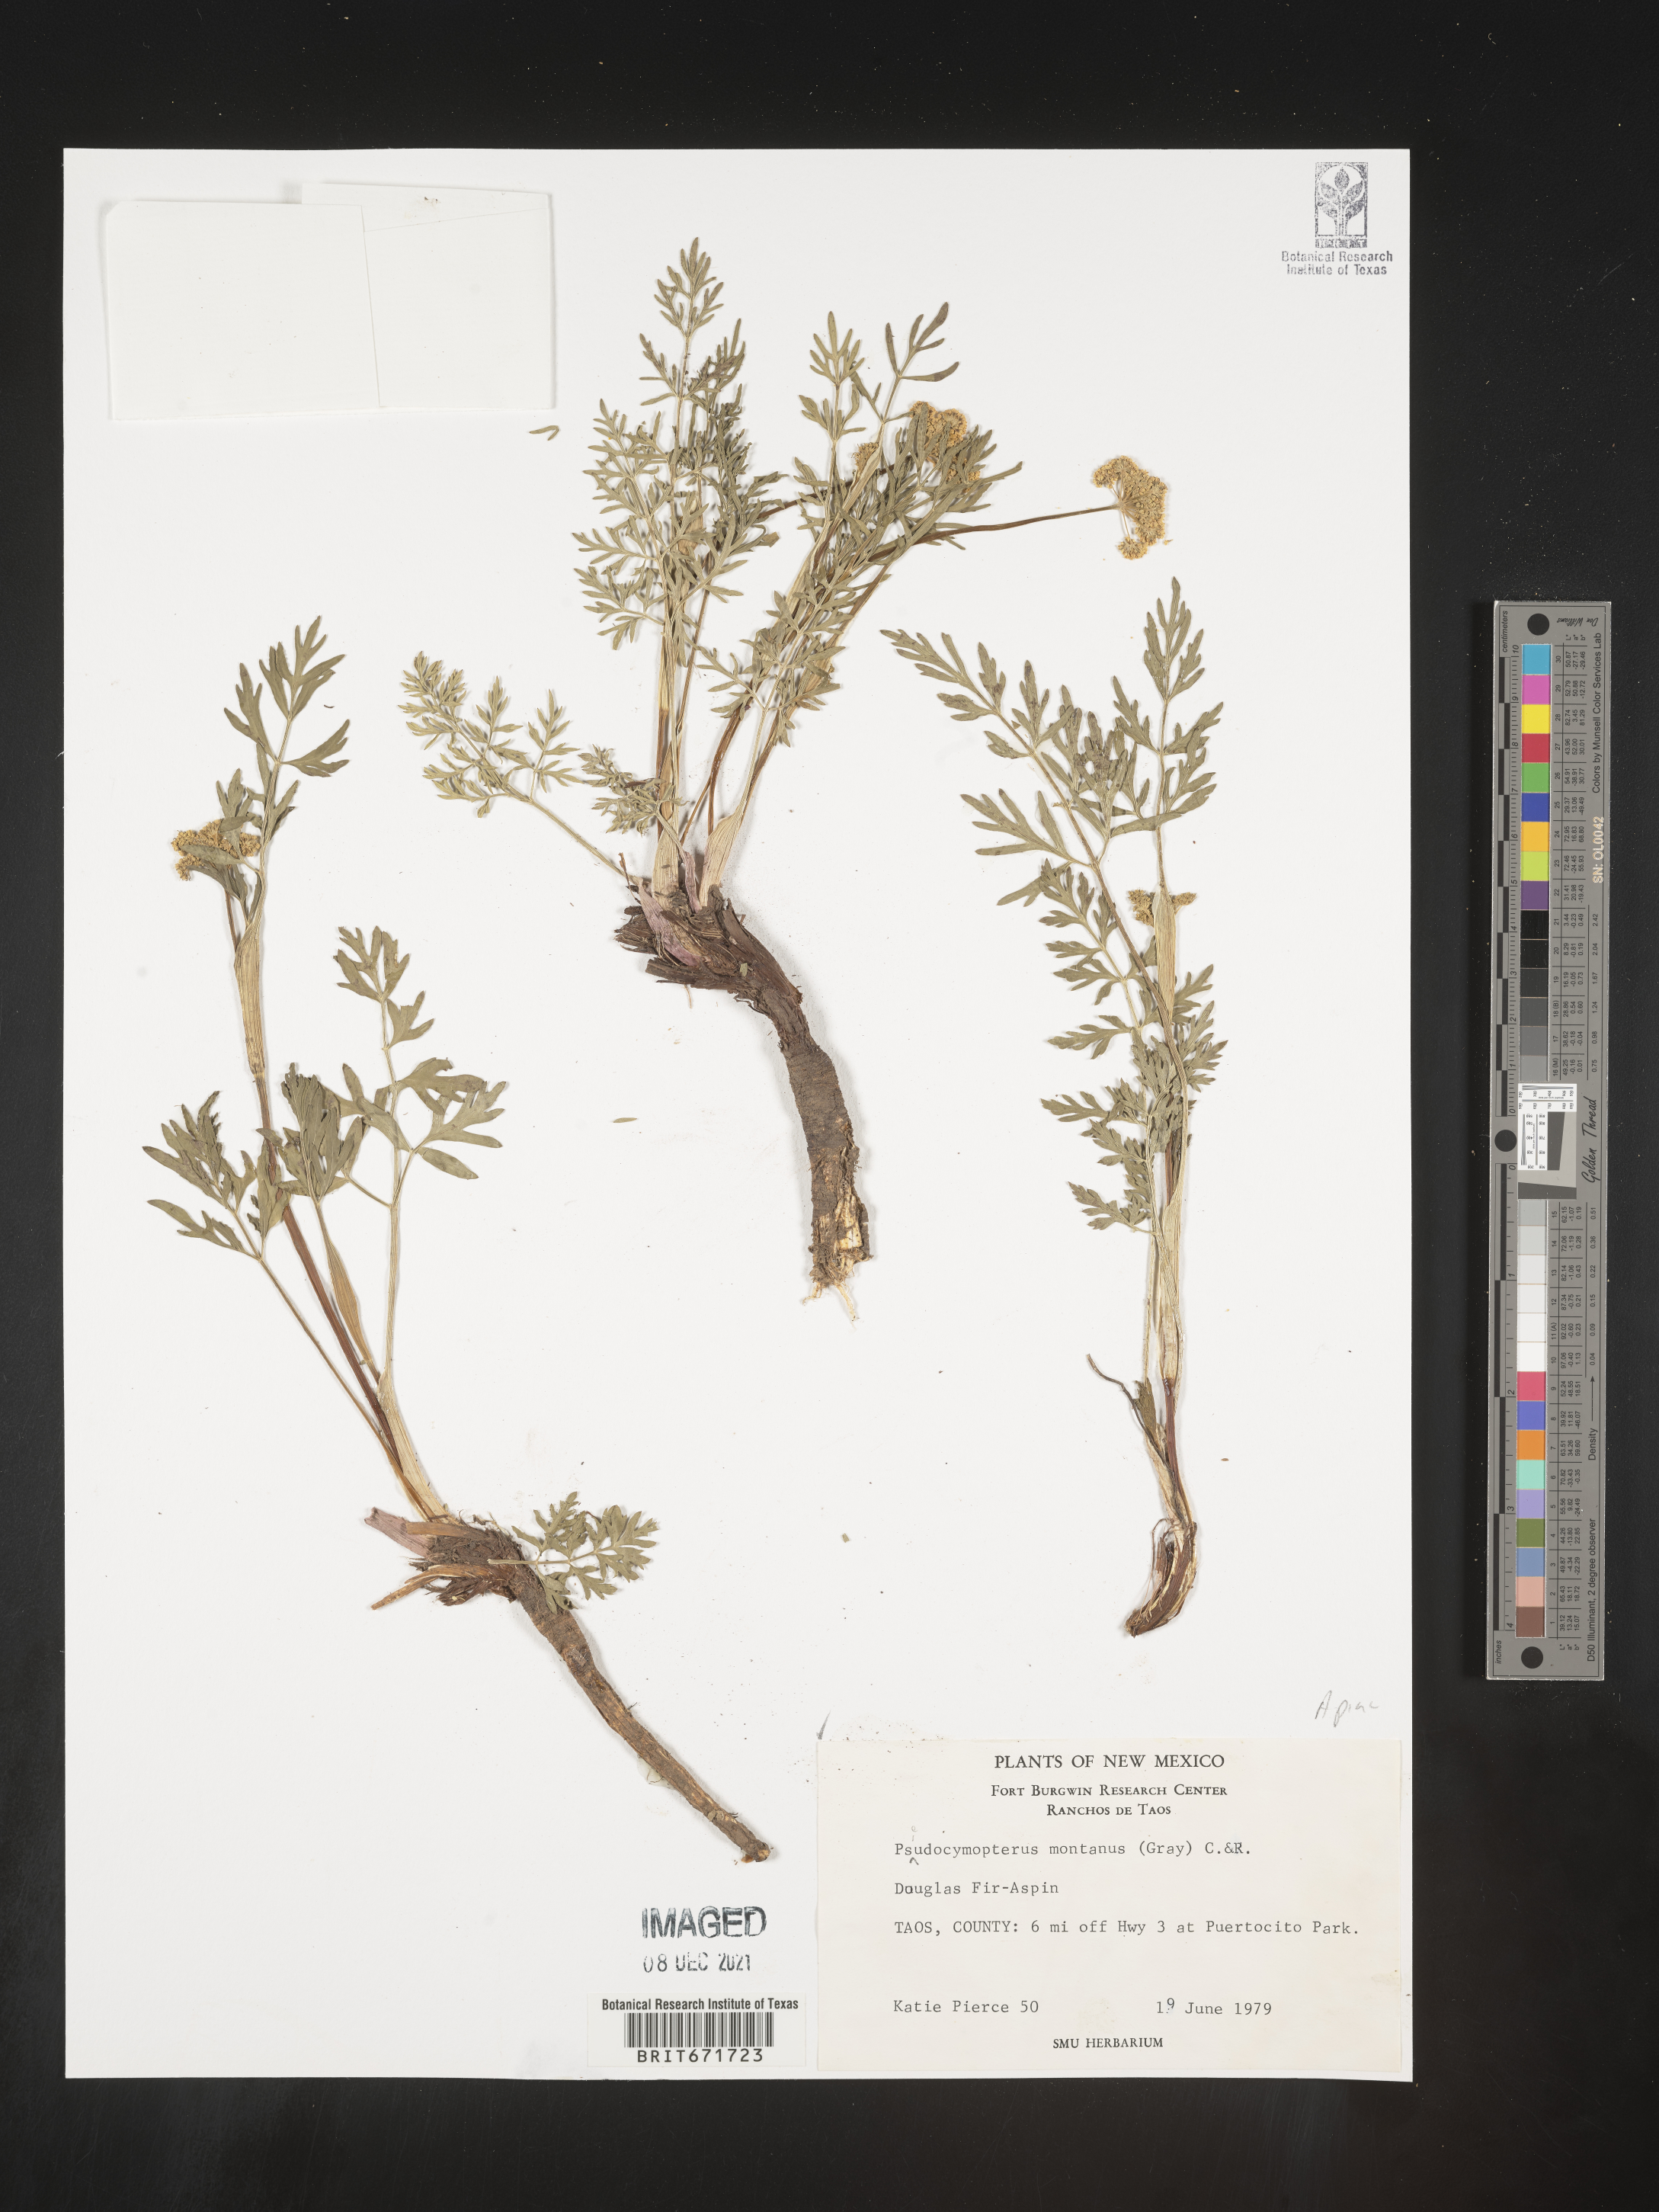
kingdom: Plantae
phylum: Tracheophyta
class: Magnoliopsida
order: Apiales
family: Apiaceae
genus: Cymopterus
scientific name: Cymopterus lemmonii
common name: Lemmon's spring-parsley
